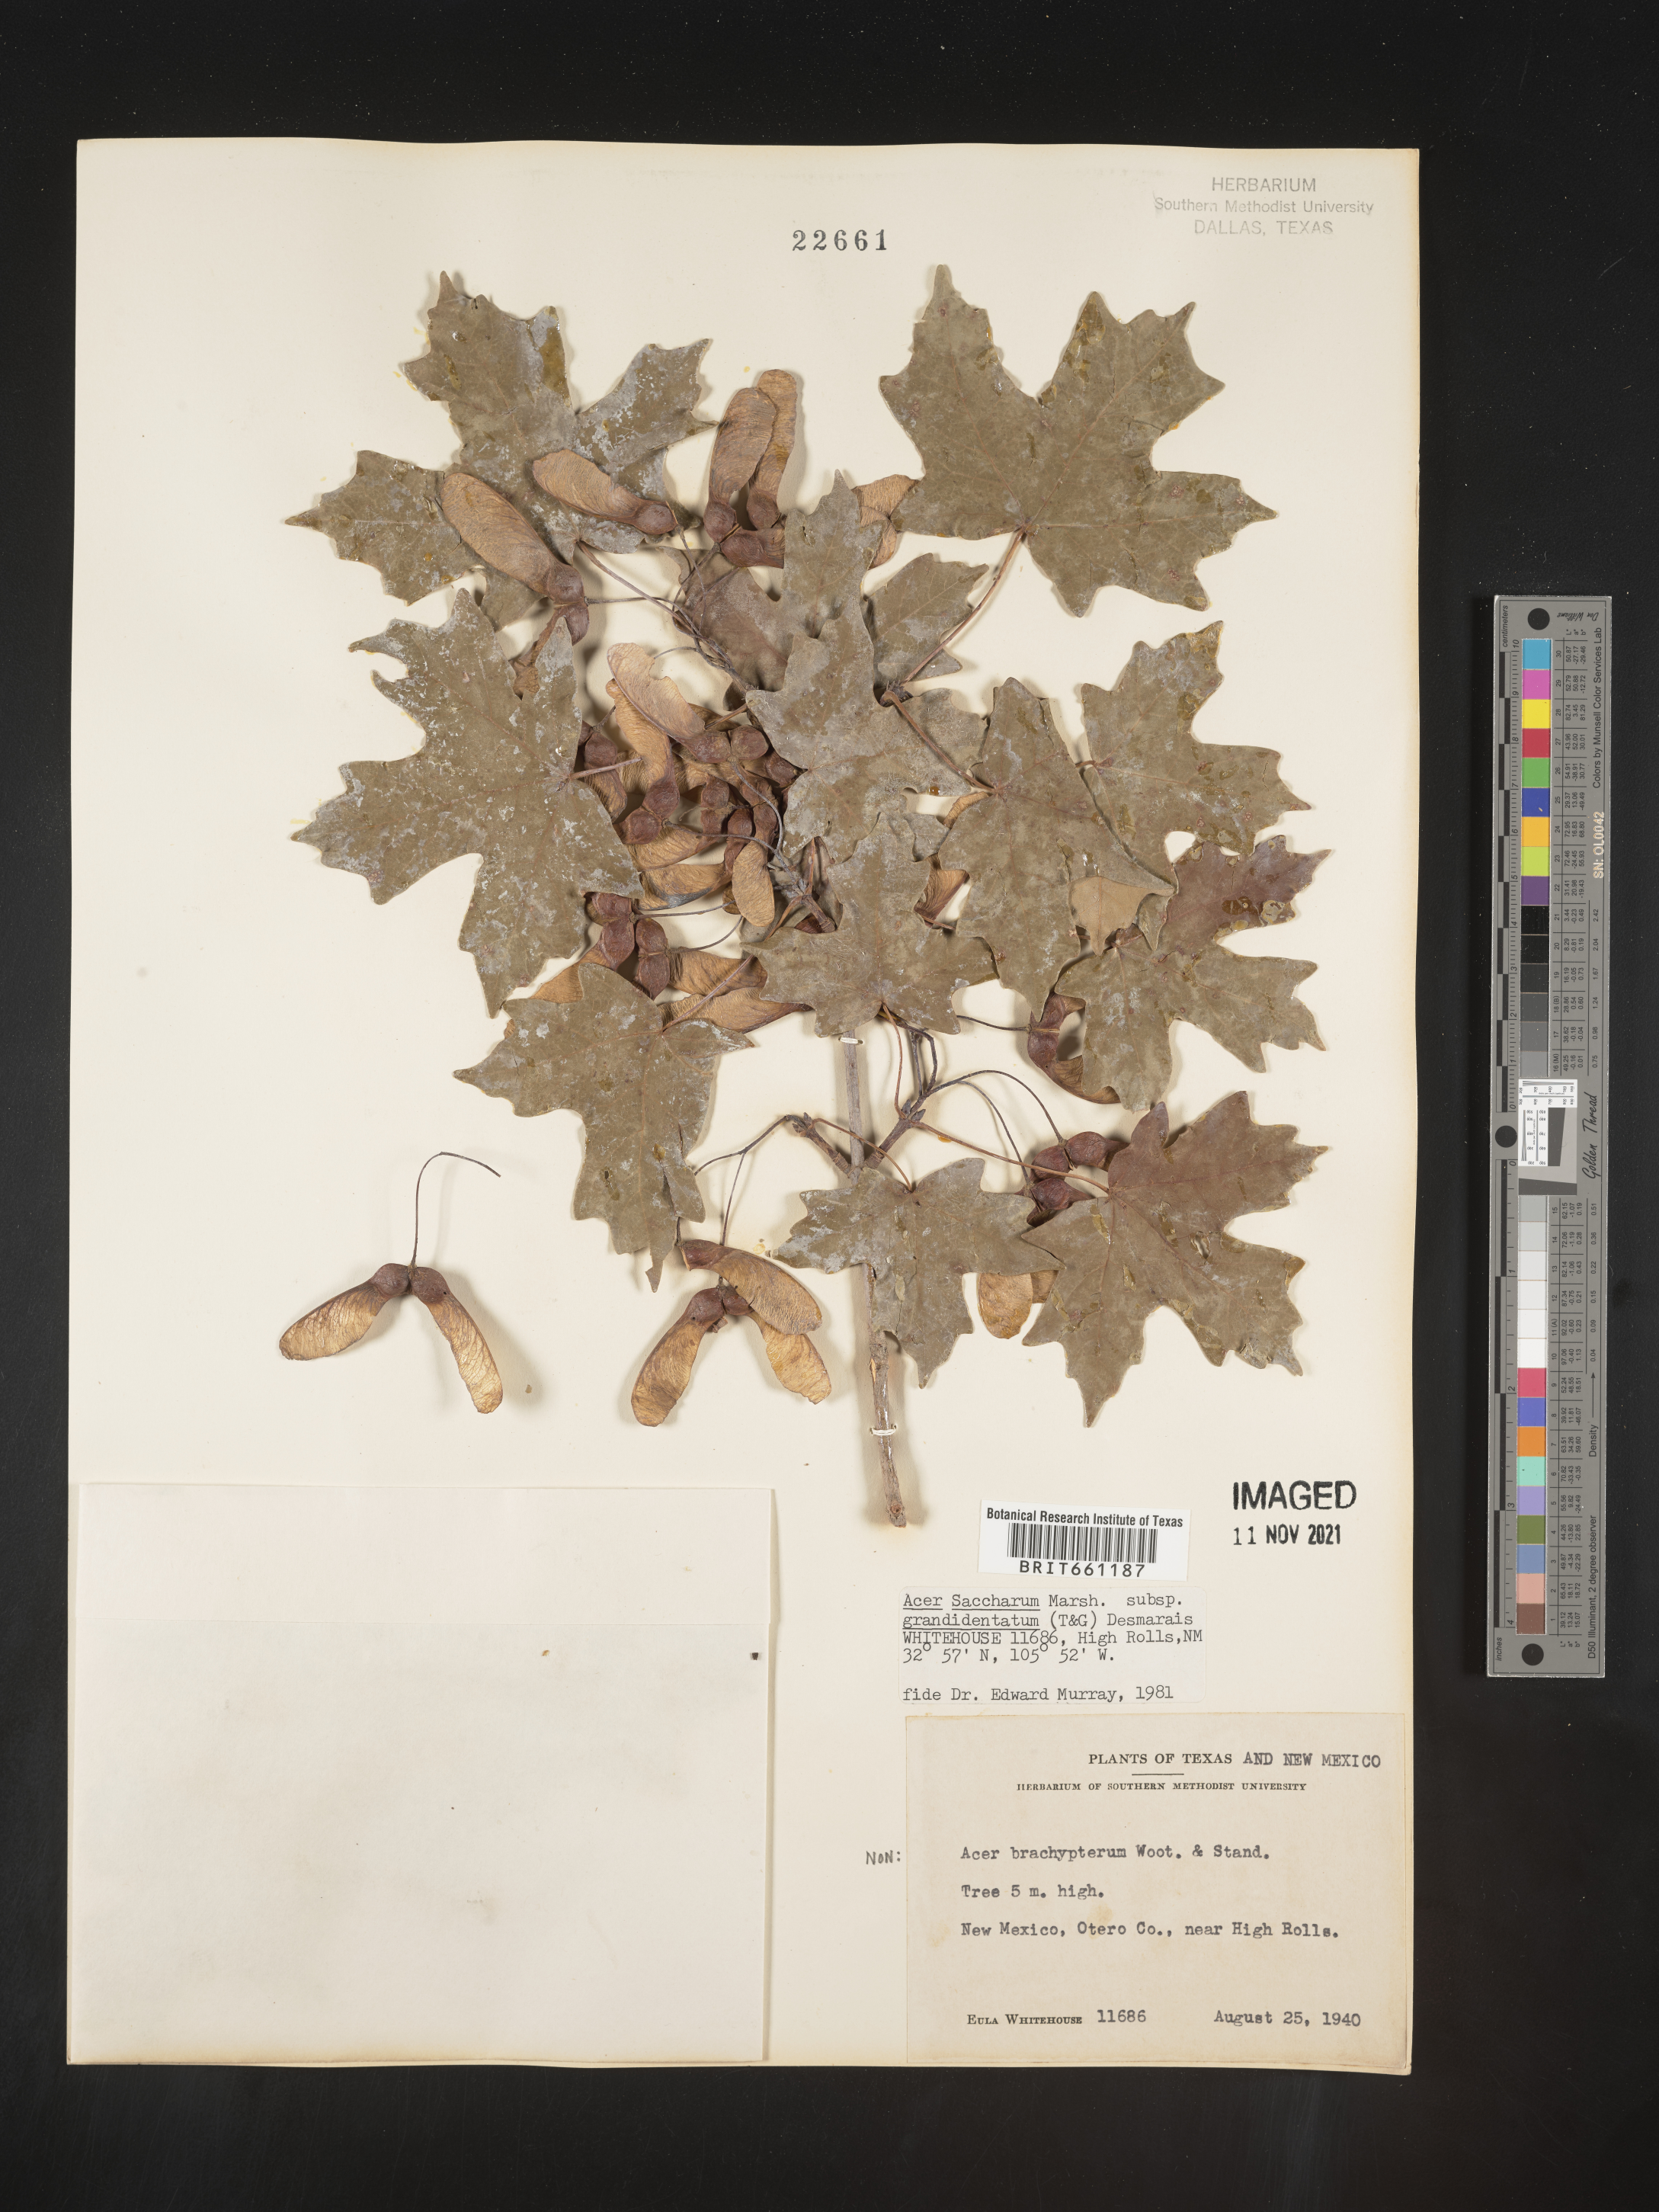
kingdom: Plantae
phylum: Tracheophyta
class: Magnoliopsida
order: Sapindales
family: Sapindaceae
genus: Acer
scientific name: Acer grandidentatum
